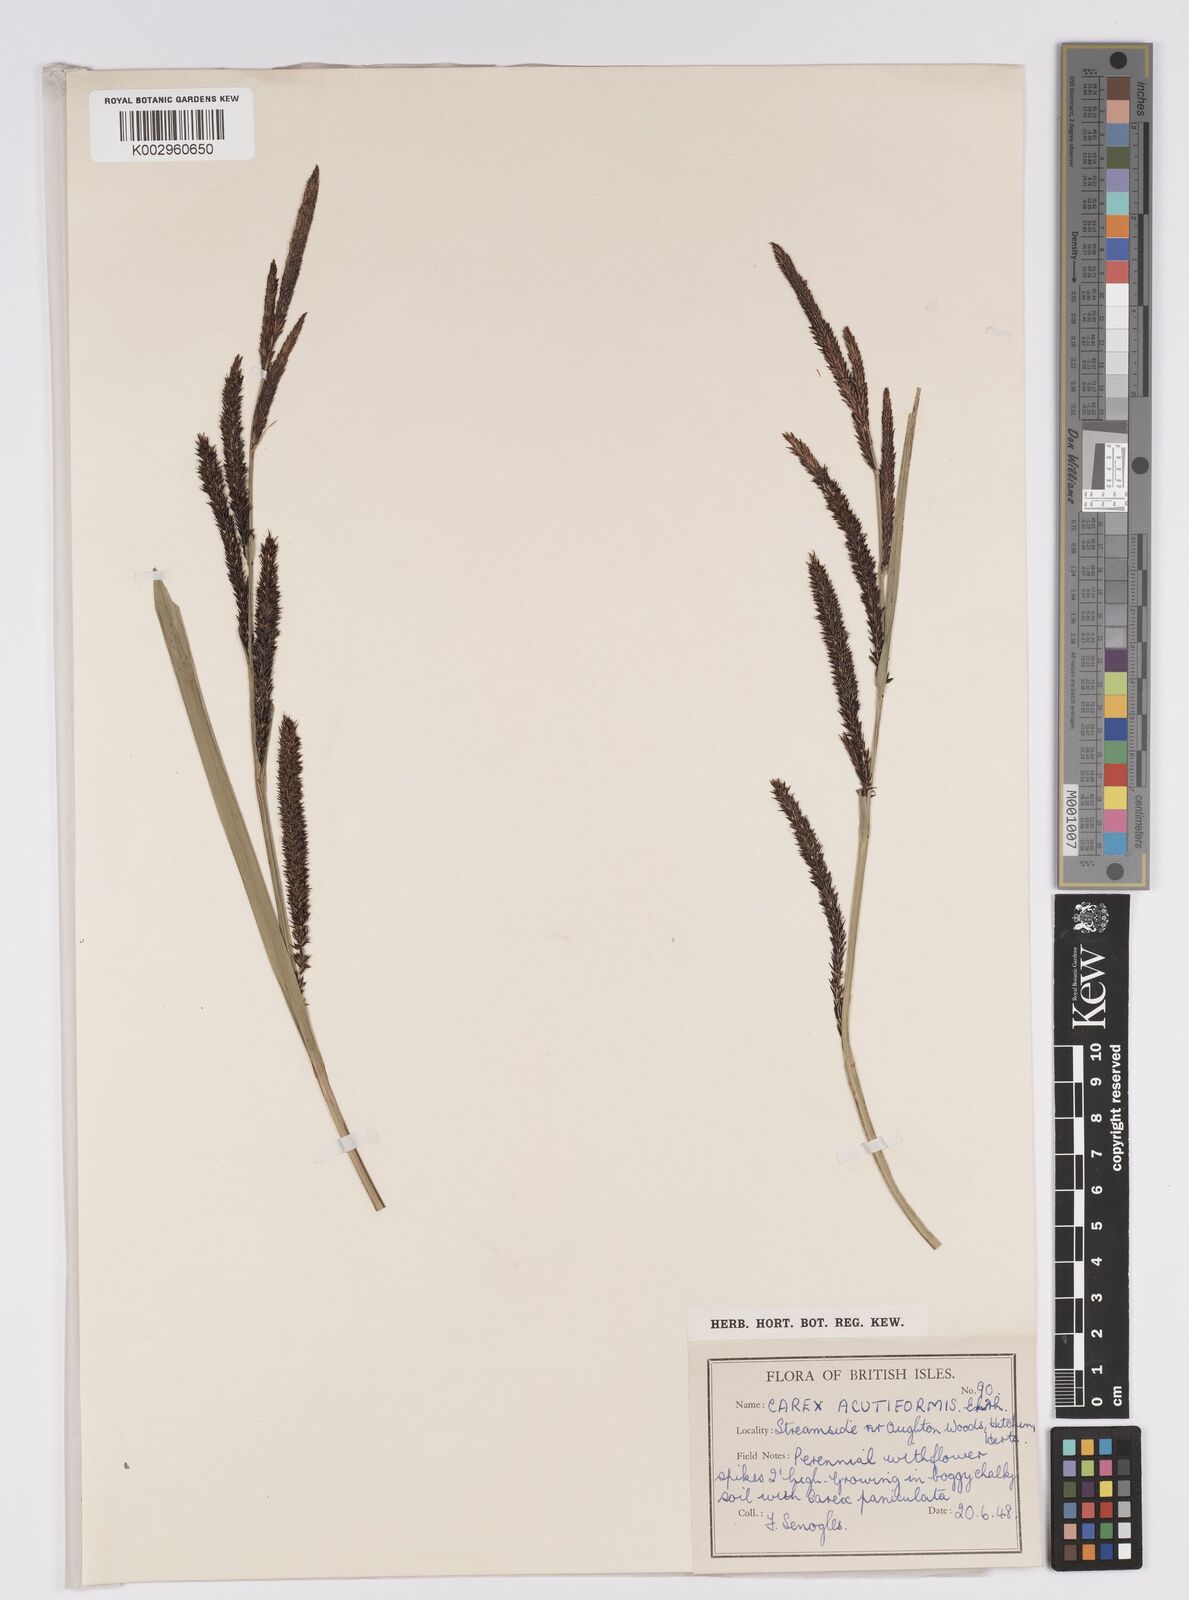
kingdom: Plantae
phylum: Tracheophyta
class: Liliopsida
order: Poales
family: Cyperaceae
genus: Carex
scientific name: Carex acutiformis
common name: Lesser pond-sedge
